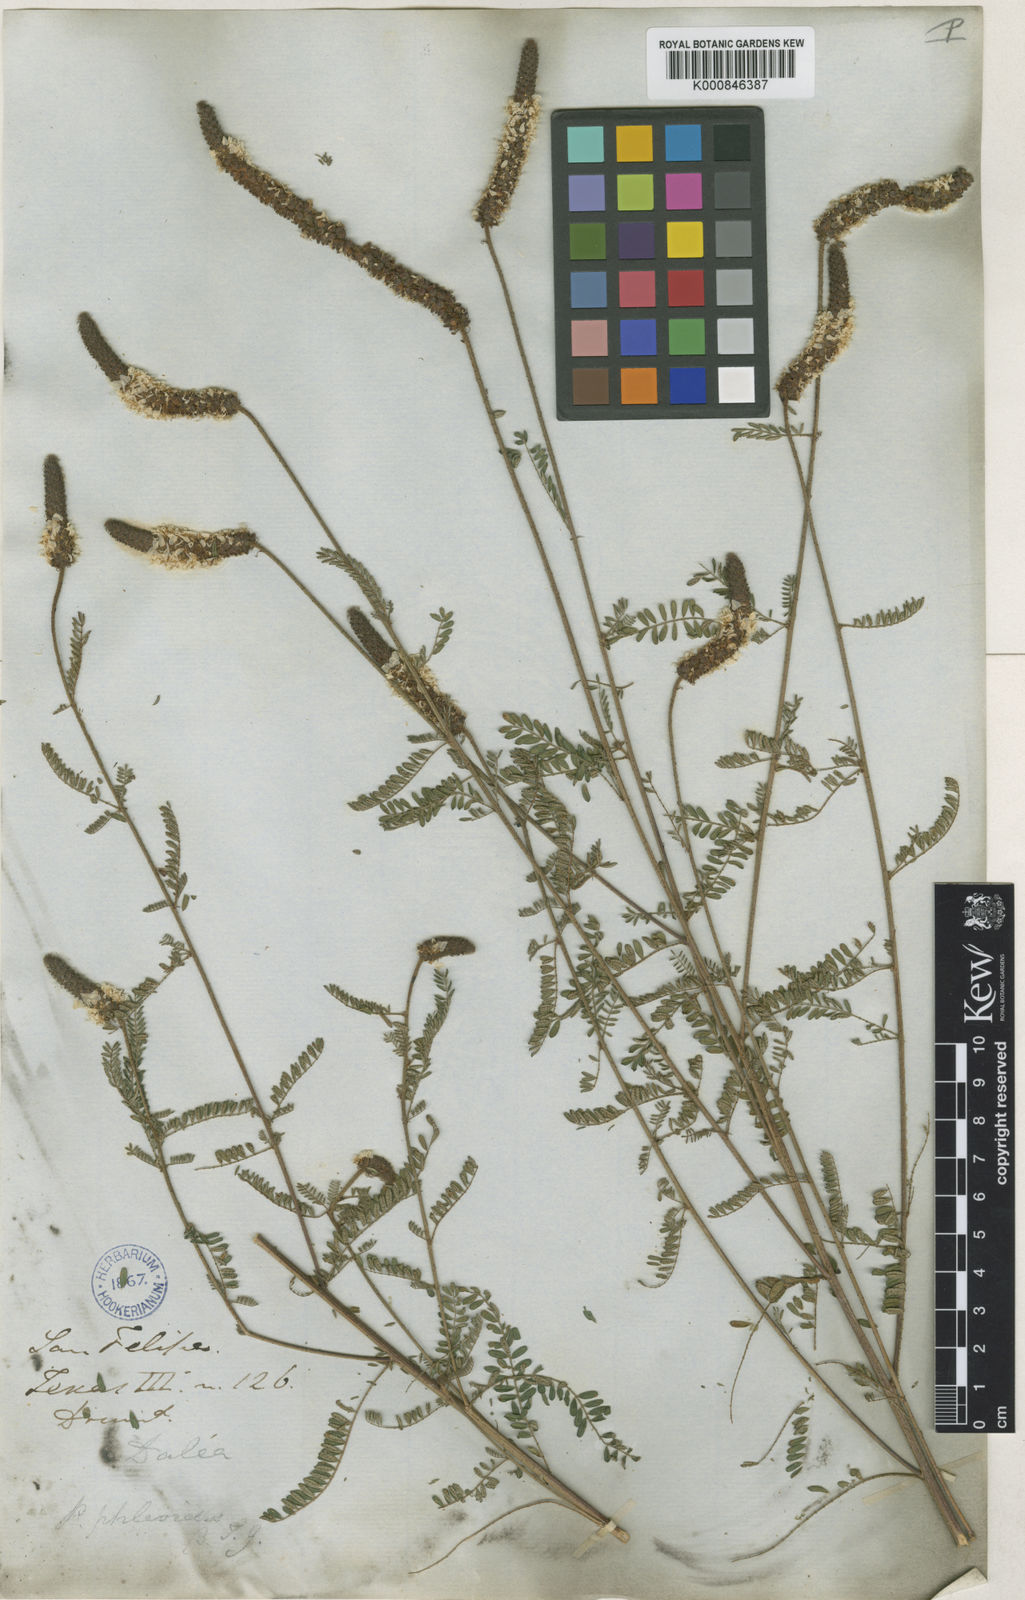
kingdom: Plantae
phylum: Tracheophyta
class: Magnoliopsida
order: Fabales
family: Fabaceae
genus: Dalea
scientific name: Dalea phleoides
